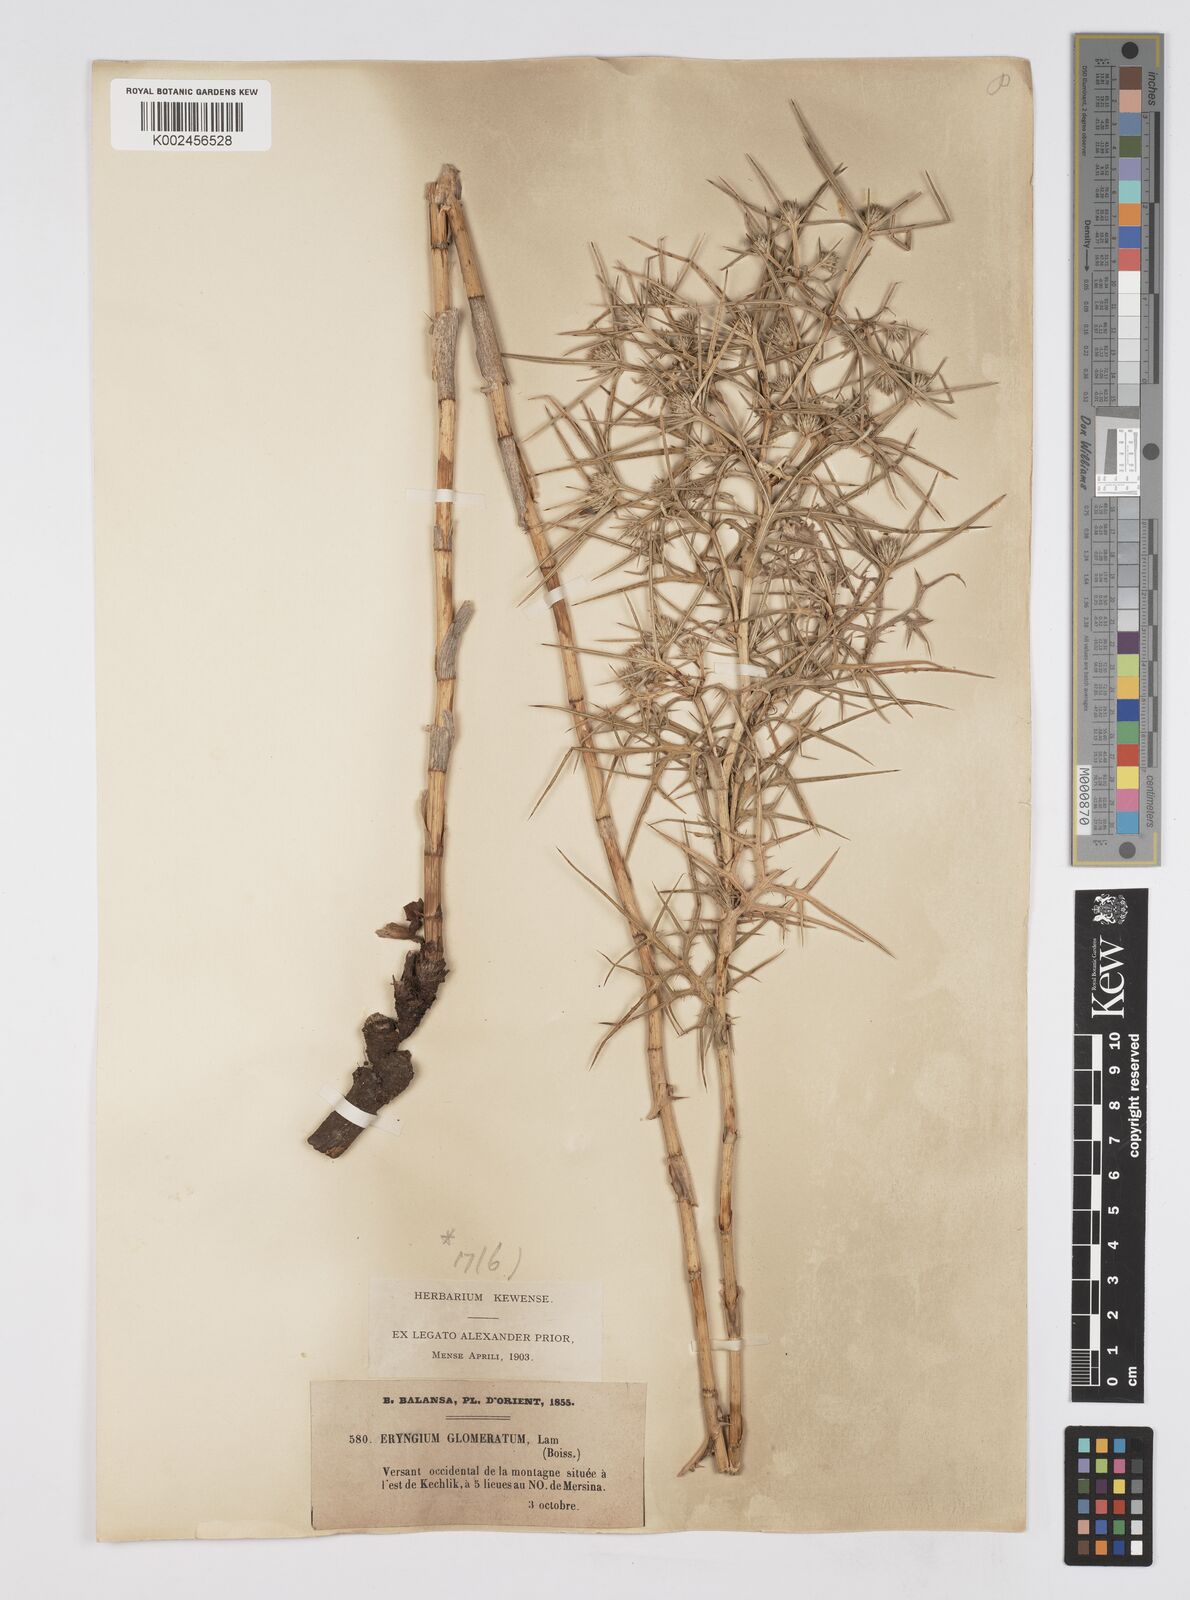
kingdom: Plantae
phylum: Tracheophyta
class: Magnoliopsida
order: Apiales
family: Apiaceae
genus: Eryngium
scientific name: Eryngium glomeratum
